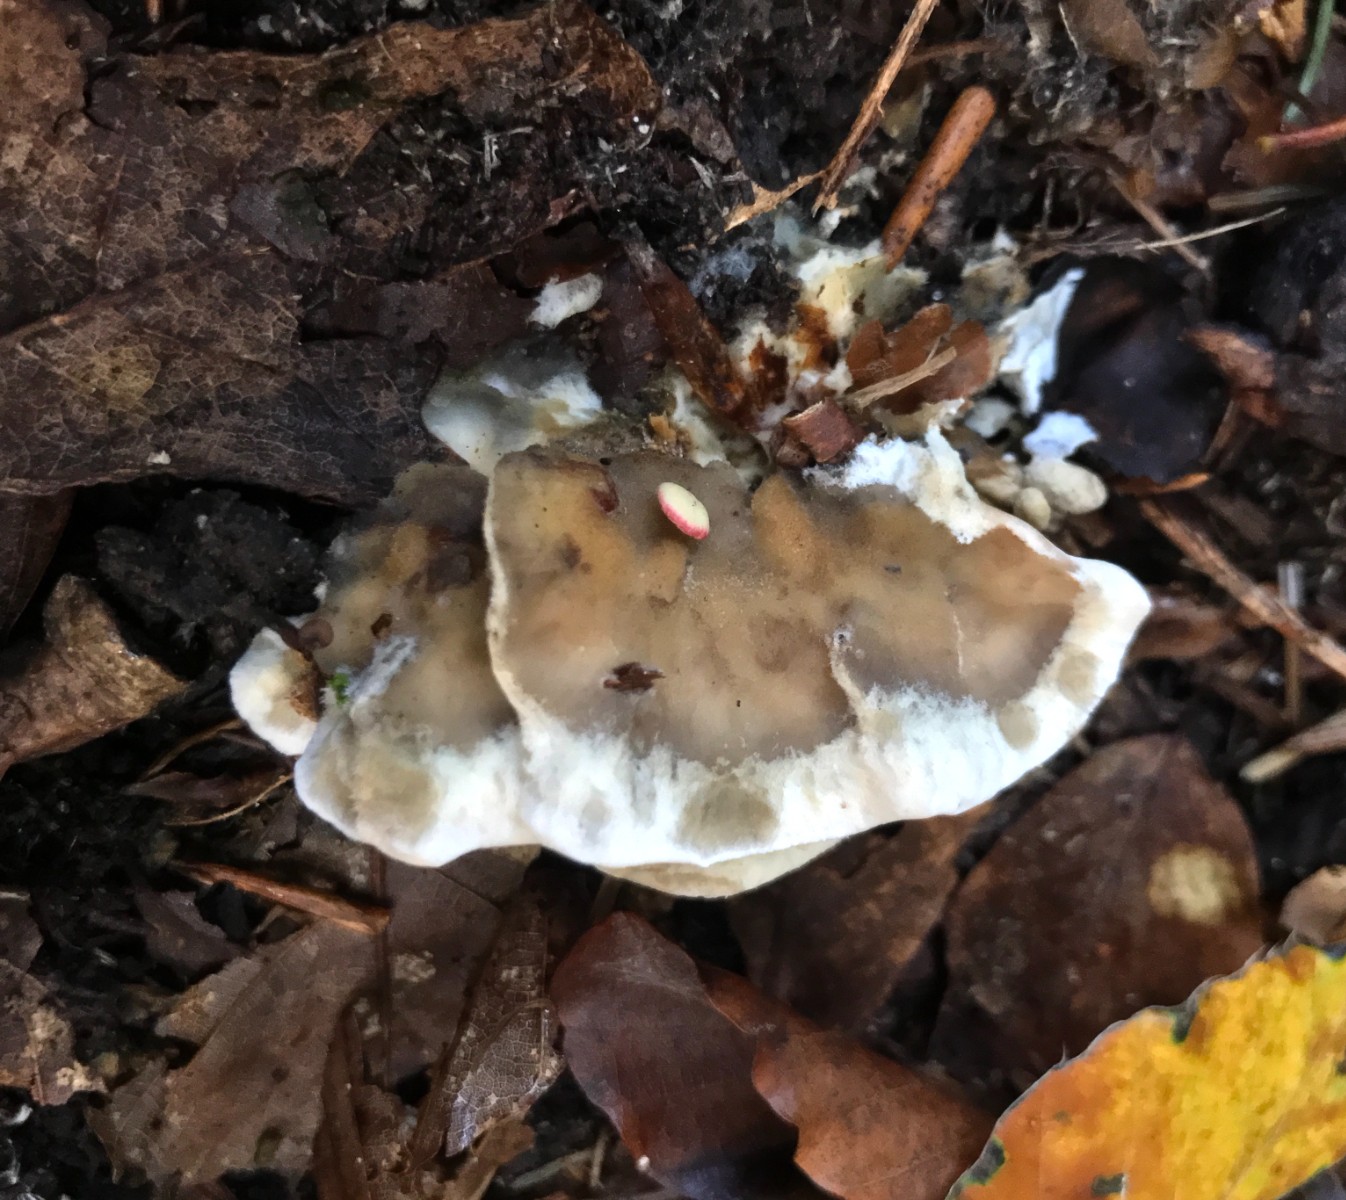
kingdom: Fungi
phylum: Basidiomycota
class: Agaricomycetes
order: Polyporales
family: Phanerochaetaceae
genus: Bjerkandera
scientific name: Bjerkandera adusta
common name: sveden sodporesvamp
